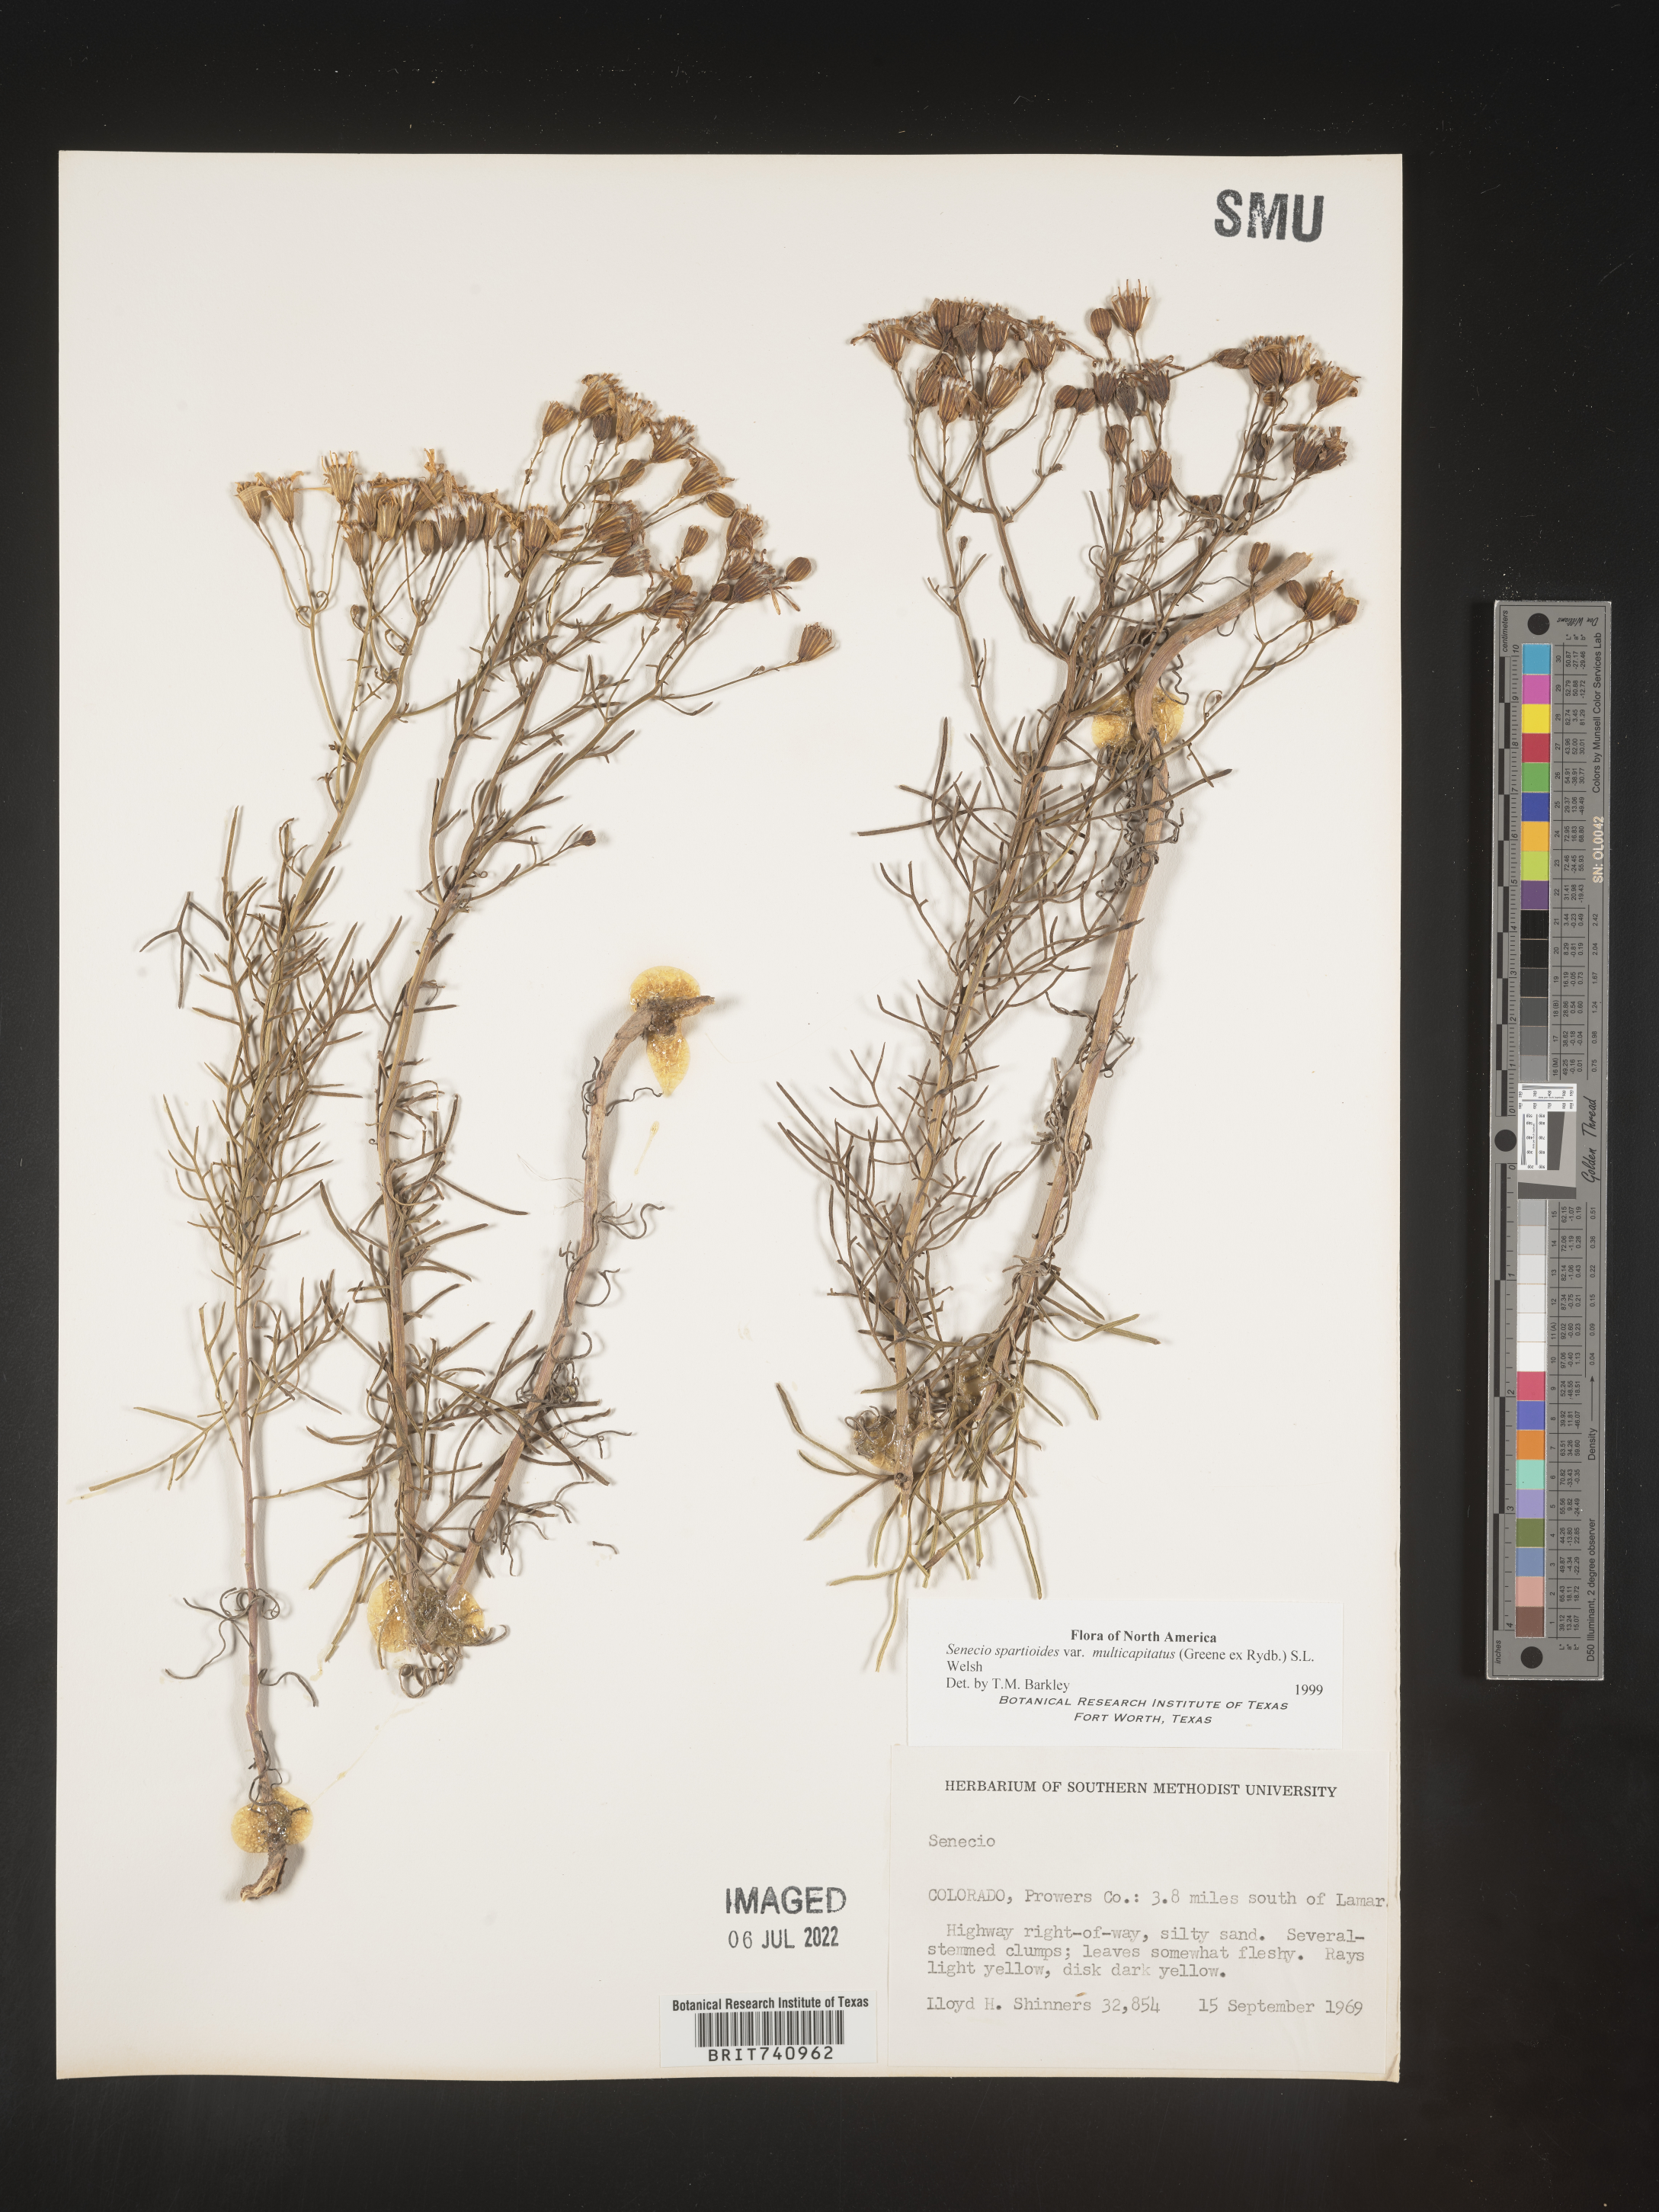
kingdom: Plantae
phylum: Tracheophyta
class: Magnoliopsida
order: Asterales
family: Asteraceae
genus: Senecio
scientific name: Senecio spartioides
